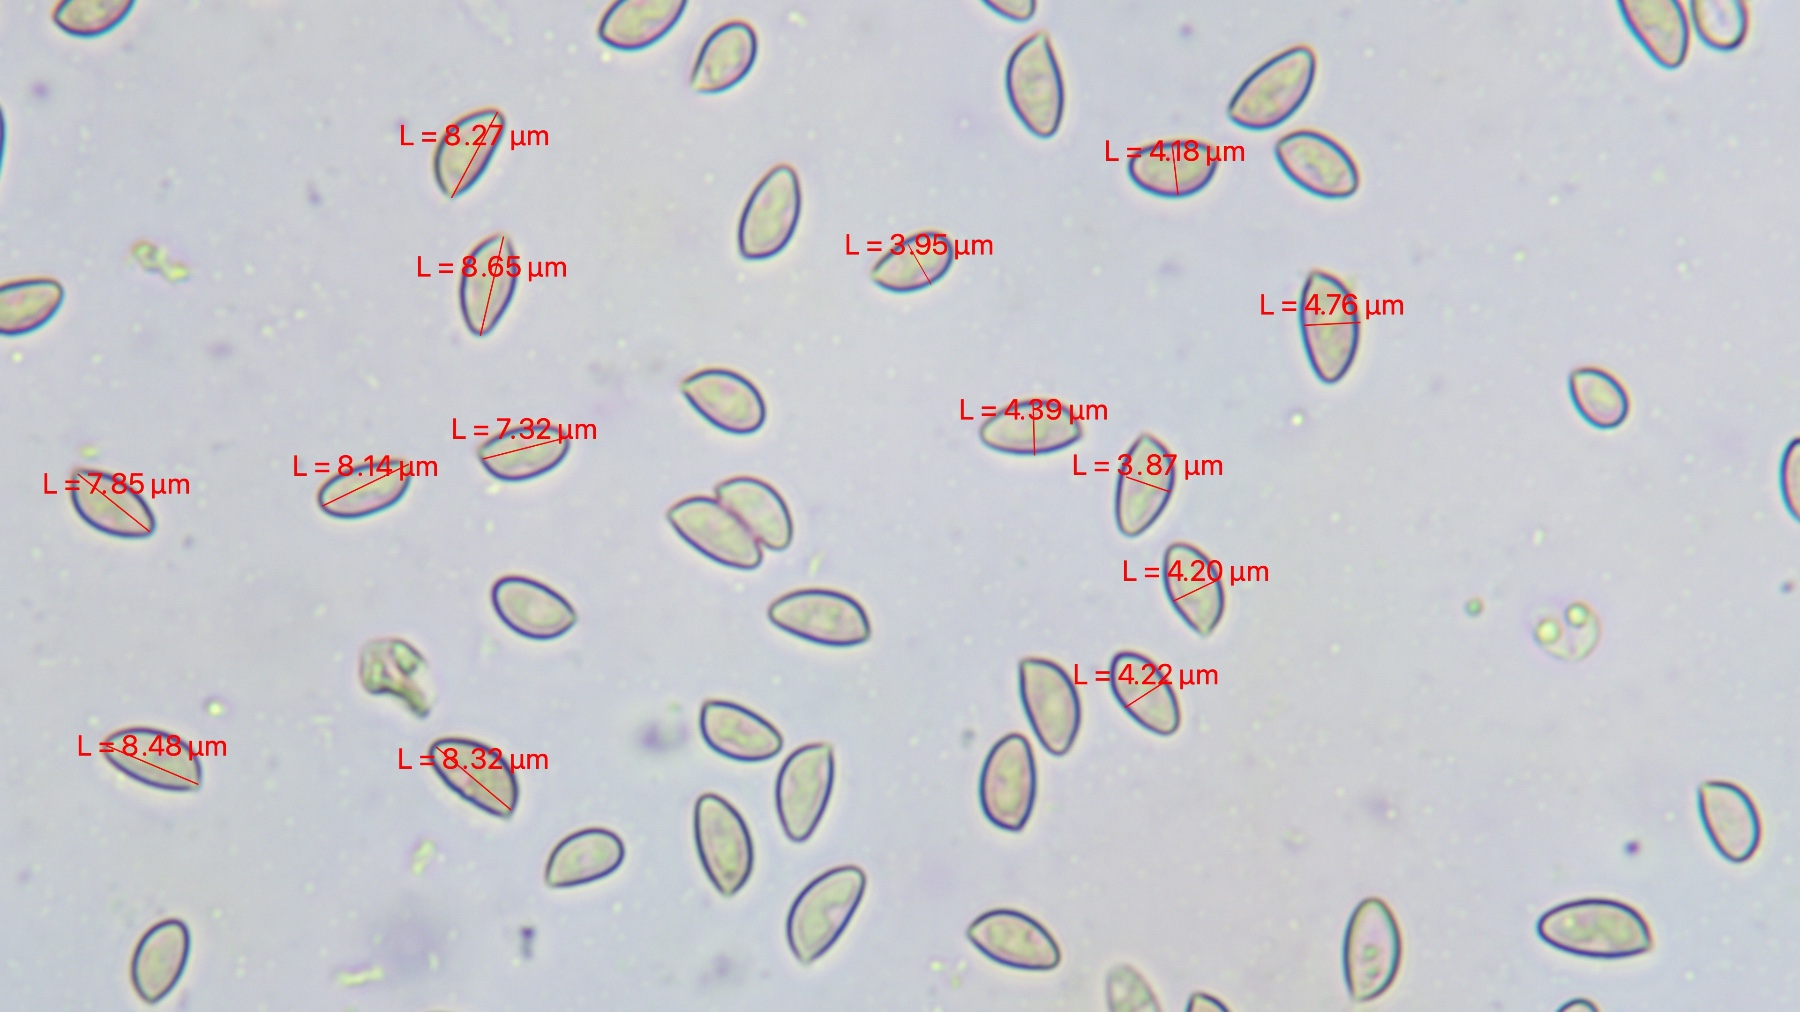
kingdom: Fungi
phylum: Basidiomycota
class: Agaricomycetes
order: Agaricales
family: Hymenogastraceae
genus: Hebeloma
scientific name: Hebeloma theobrominum
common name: rødbrun tåreblad
